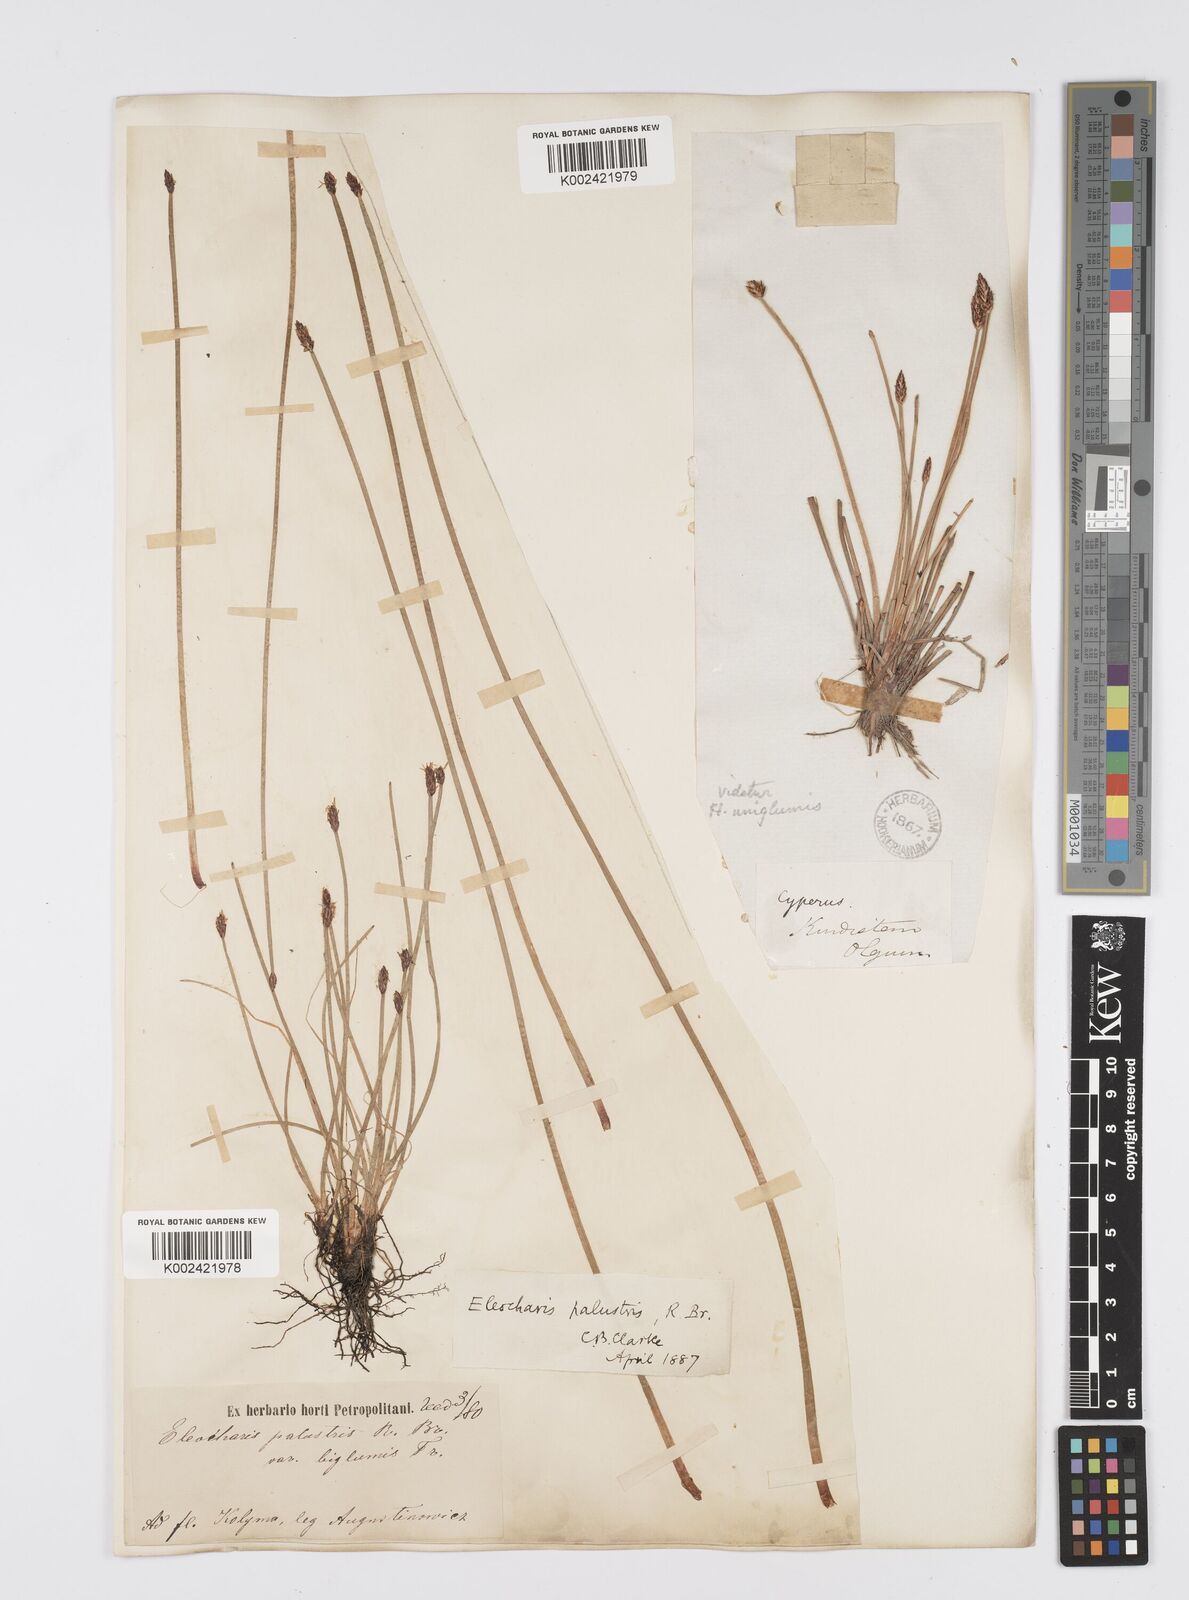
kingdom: Plantae
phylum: Tracheophyta
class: Liliopsida
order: Poales
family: Cyperaceae
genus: Eleocharis
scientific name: Eleocharis palustris
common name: Common spike-rush
